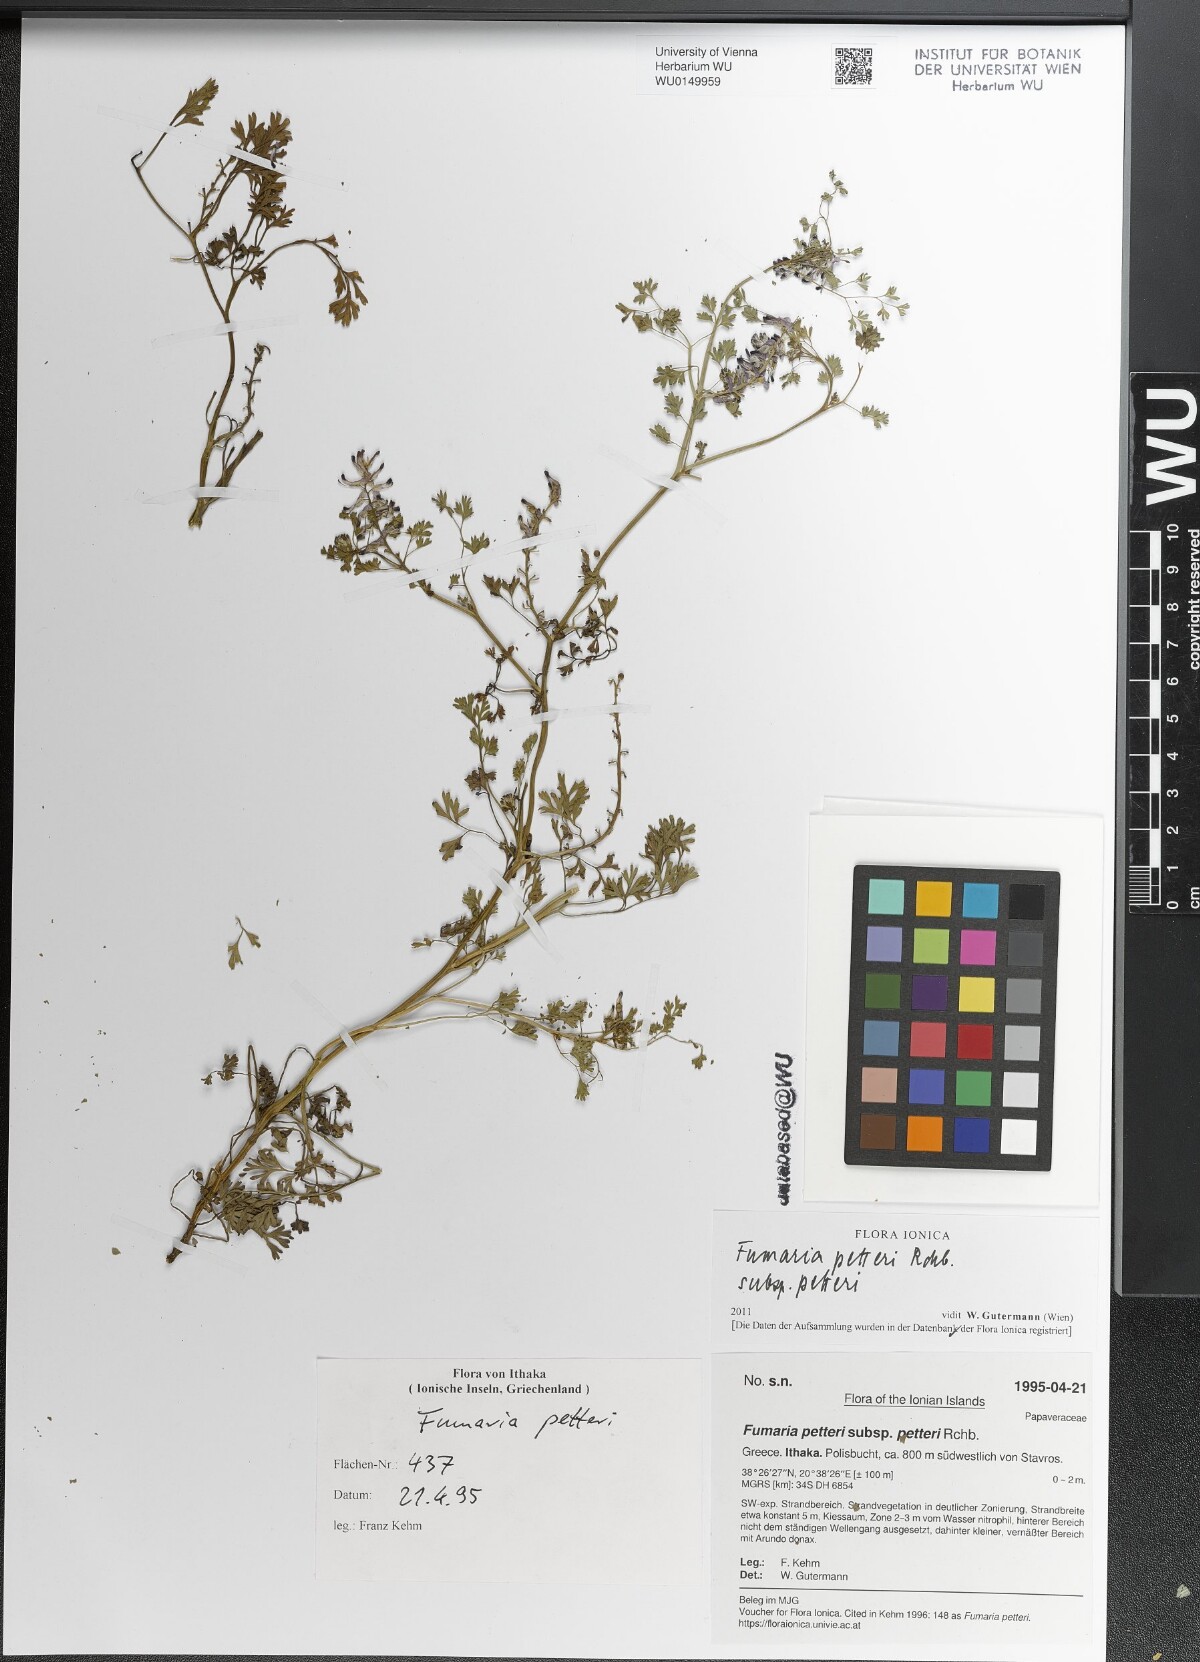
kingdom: Plantae
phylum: Tracheophyta
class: Magnoliopsida
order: Ranunculales
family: Papaveraceae
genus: Fumaria
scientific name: Fumaria petteri
